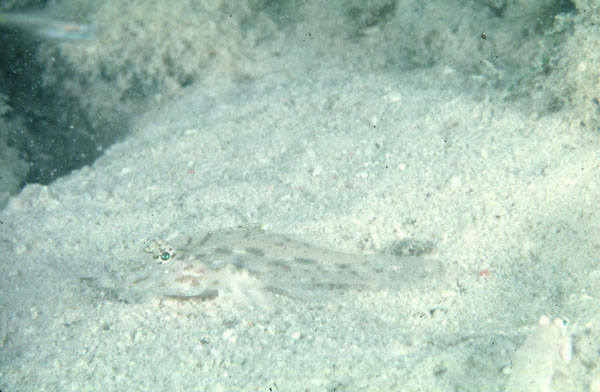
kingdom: Animalia
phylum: Chordata
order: Perciformes
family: Gobiidae
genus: Fusigobius
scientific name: Fusigobius neophytus
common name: Sand goby
